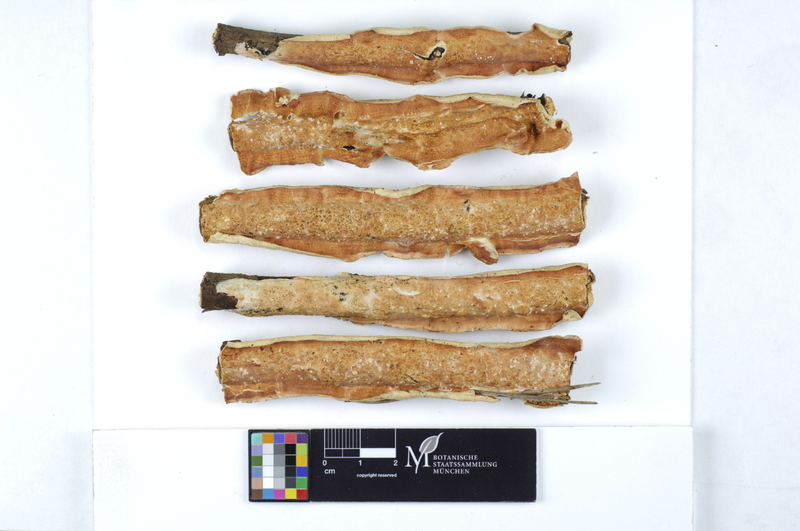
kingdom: Fungi
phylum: Basidiomycota
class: Agaricomycetes
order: Polyporales
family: Irpicaceae
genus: Byssomerulius
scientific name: Byssomerulius corium
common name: Netted crust
